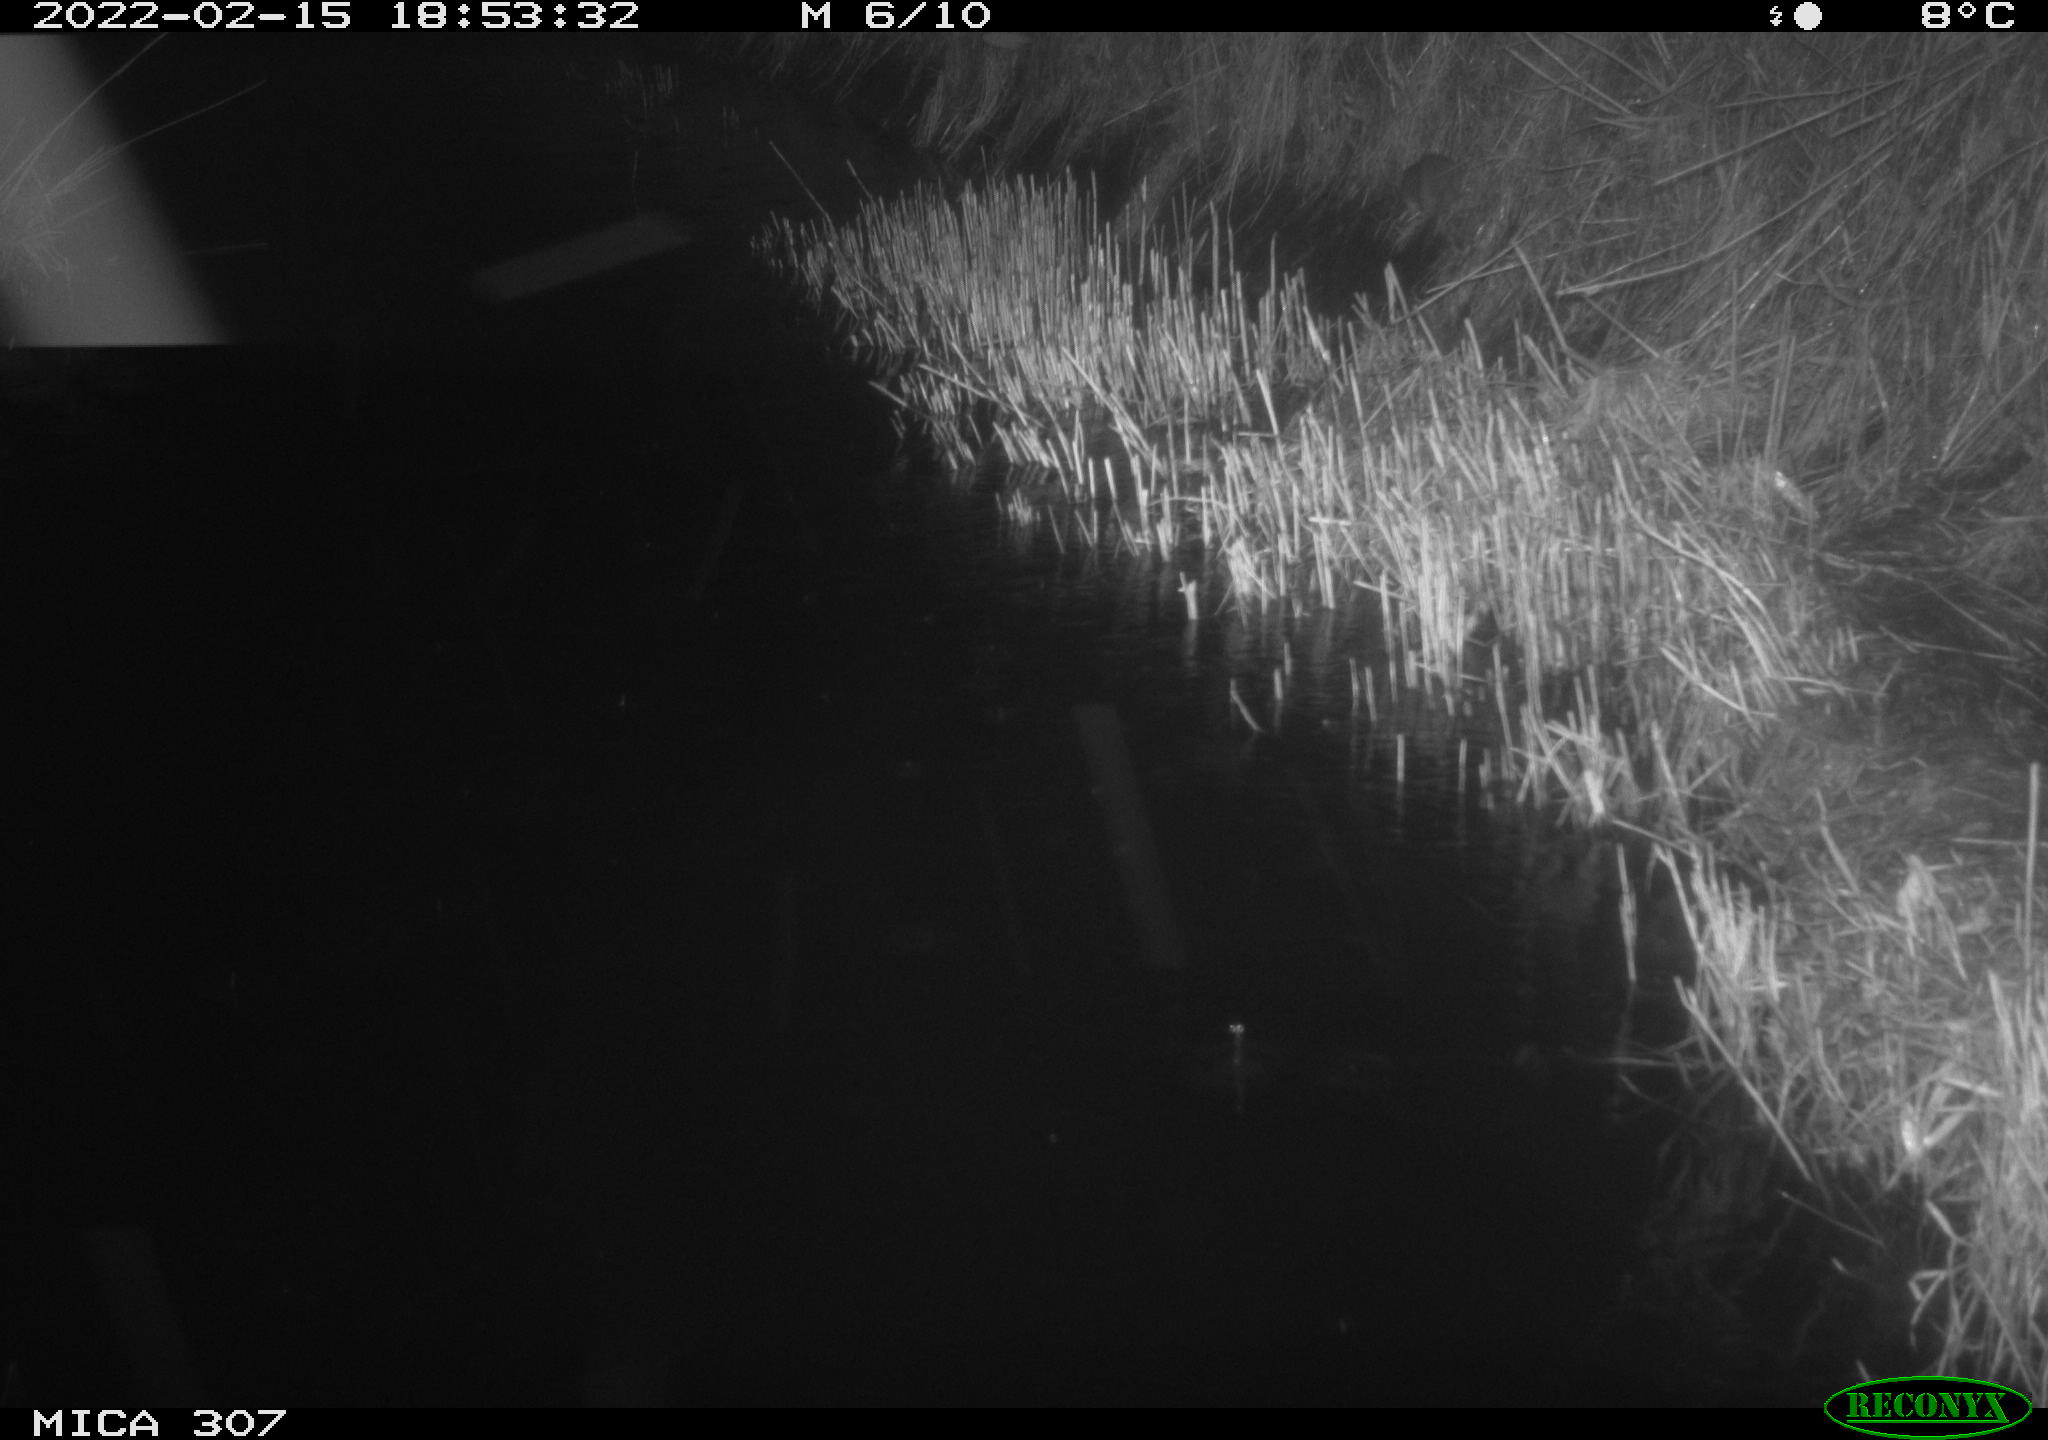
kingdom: Animalia
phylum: Chordata
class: Mammalia
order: Rodentia
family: Muridae
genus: Rattus
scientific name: Rattus norvegicus
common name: Brown rat
